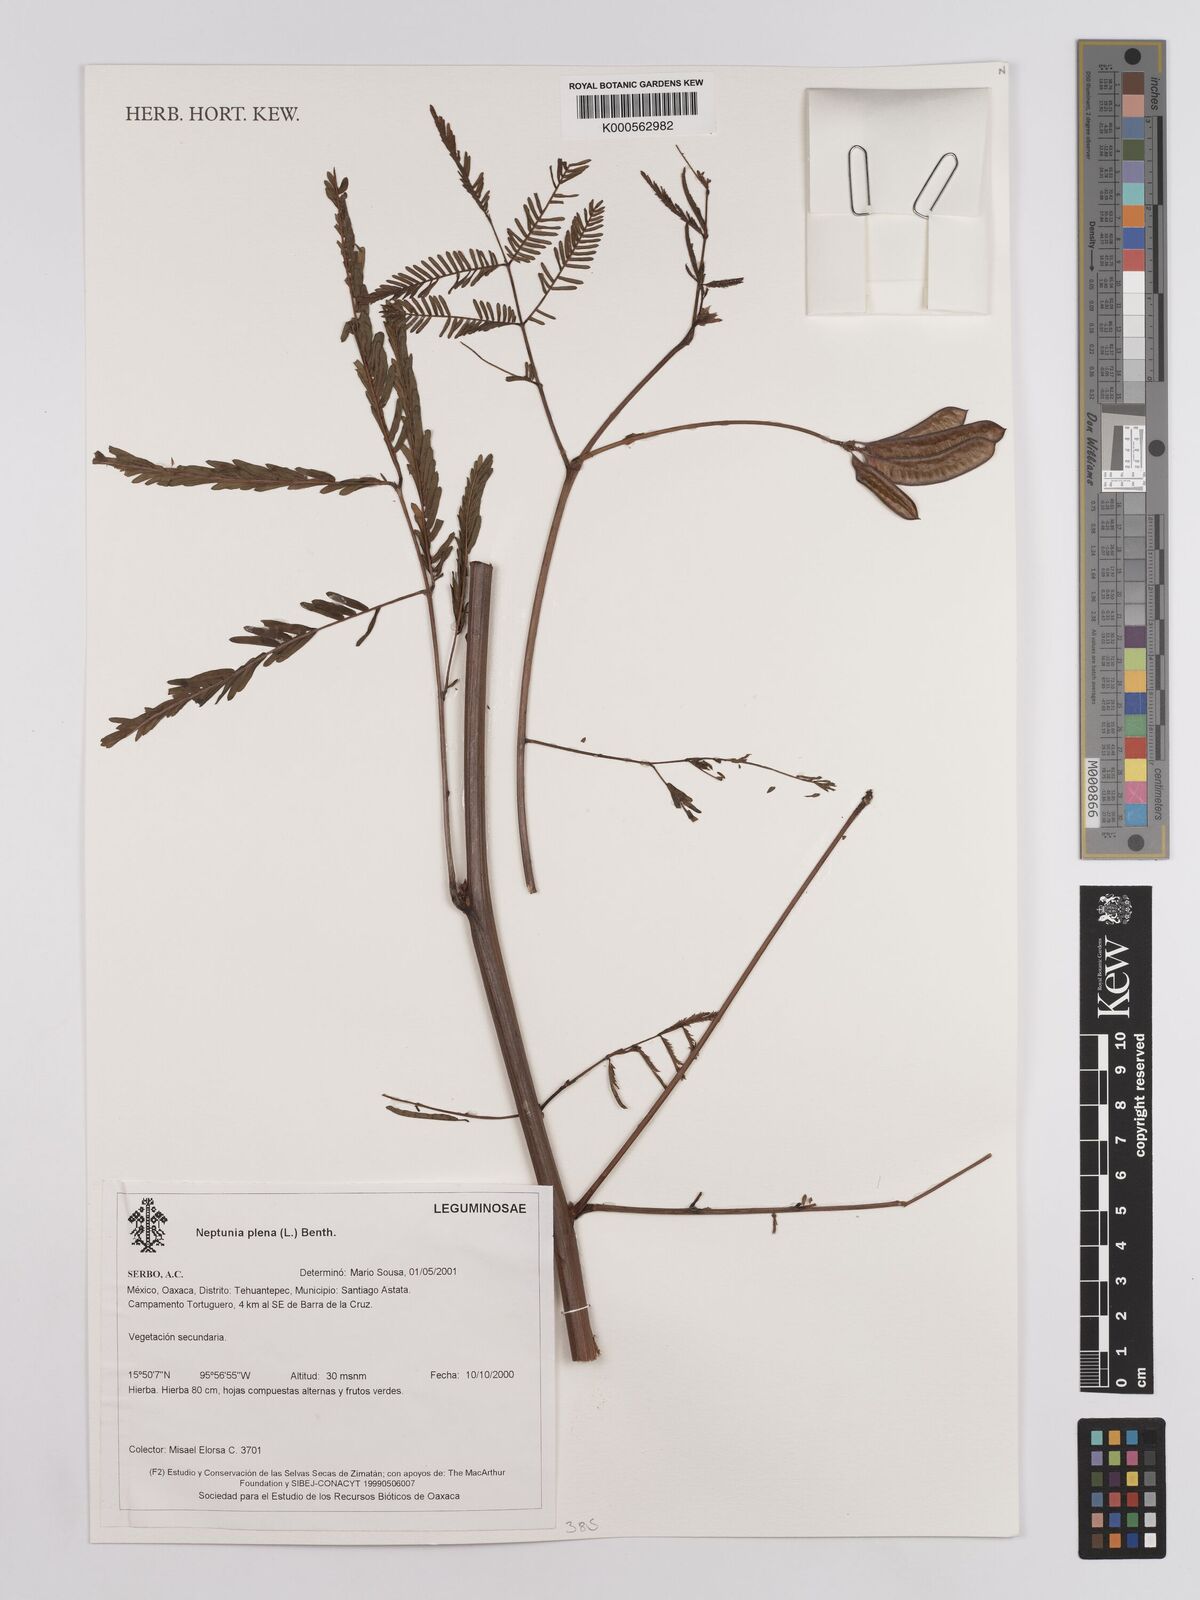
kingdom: Plantae
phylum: Tracheophyta
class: Magnoliopsida
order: Fabales
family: Fabaceae
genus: Neptunia
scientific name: Neptunia plena
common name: Dead and awake
